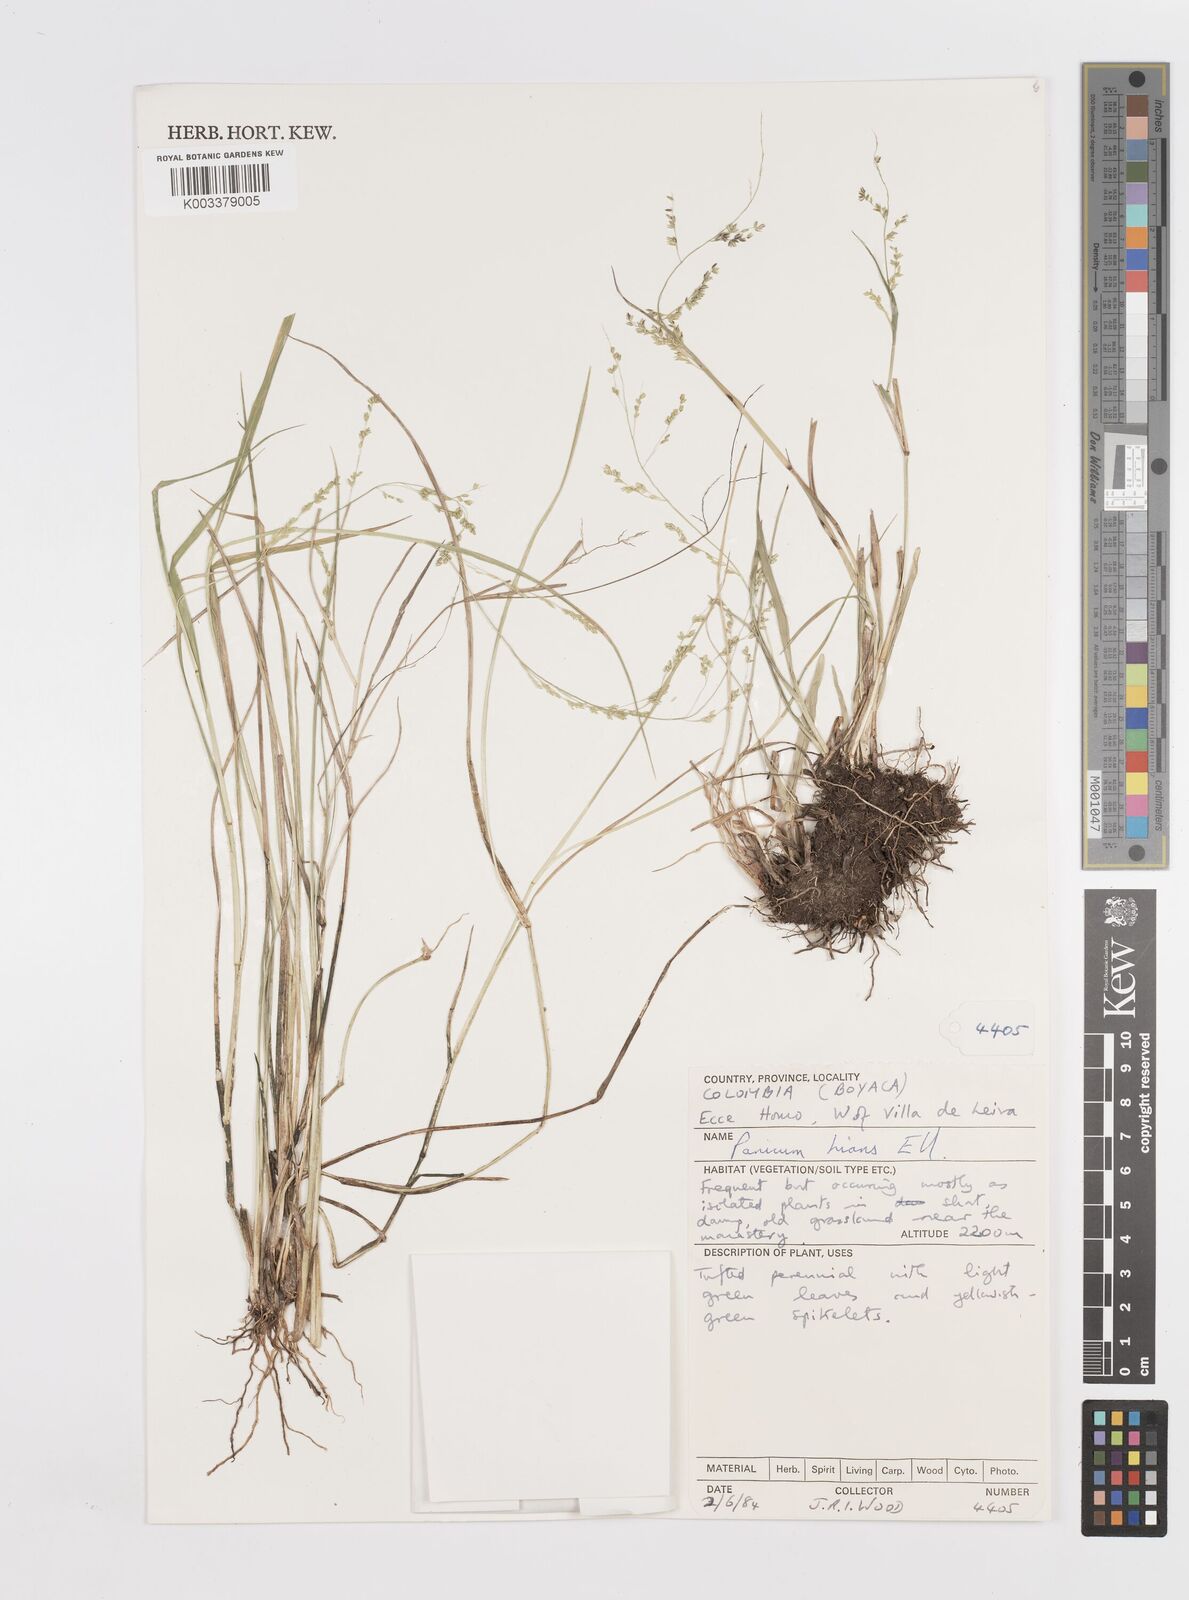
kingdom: Plantae
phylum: Tracheophyta
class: Liliopsida
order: Poales
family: Poaceae
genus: Steinchisma
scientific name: Steinchisma hians
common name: Gaping panic grass
